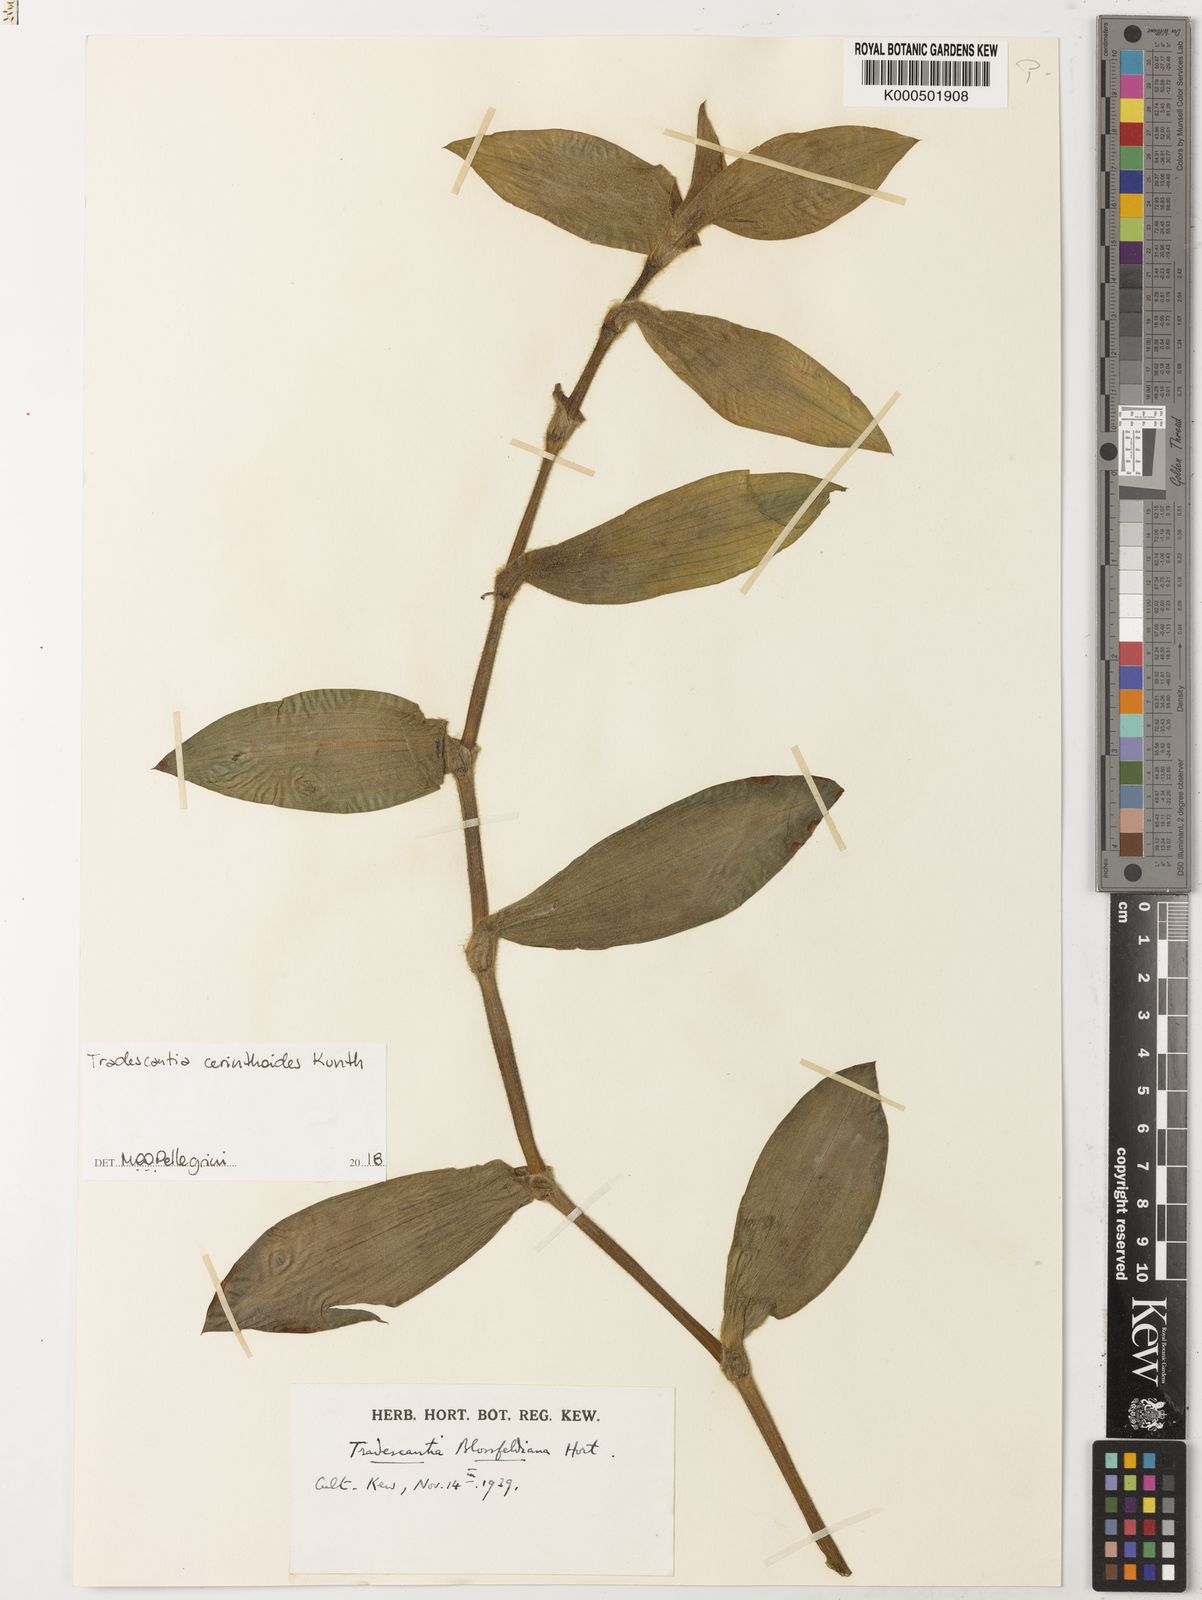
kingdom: Plantae
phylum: Tracheophyta
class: Liliopsida
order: Commelinales
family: Commelinaceae
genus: Tradescantia
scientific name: Tradescantia cerinthoides
